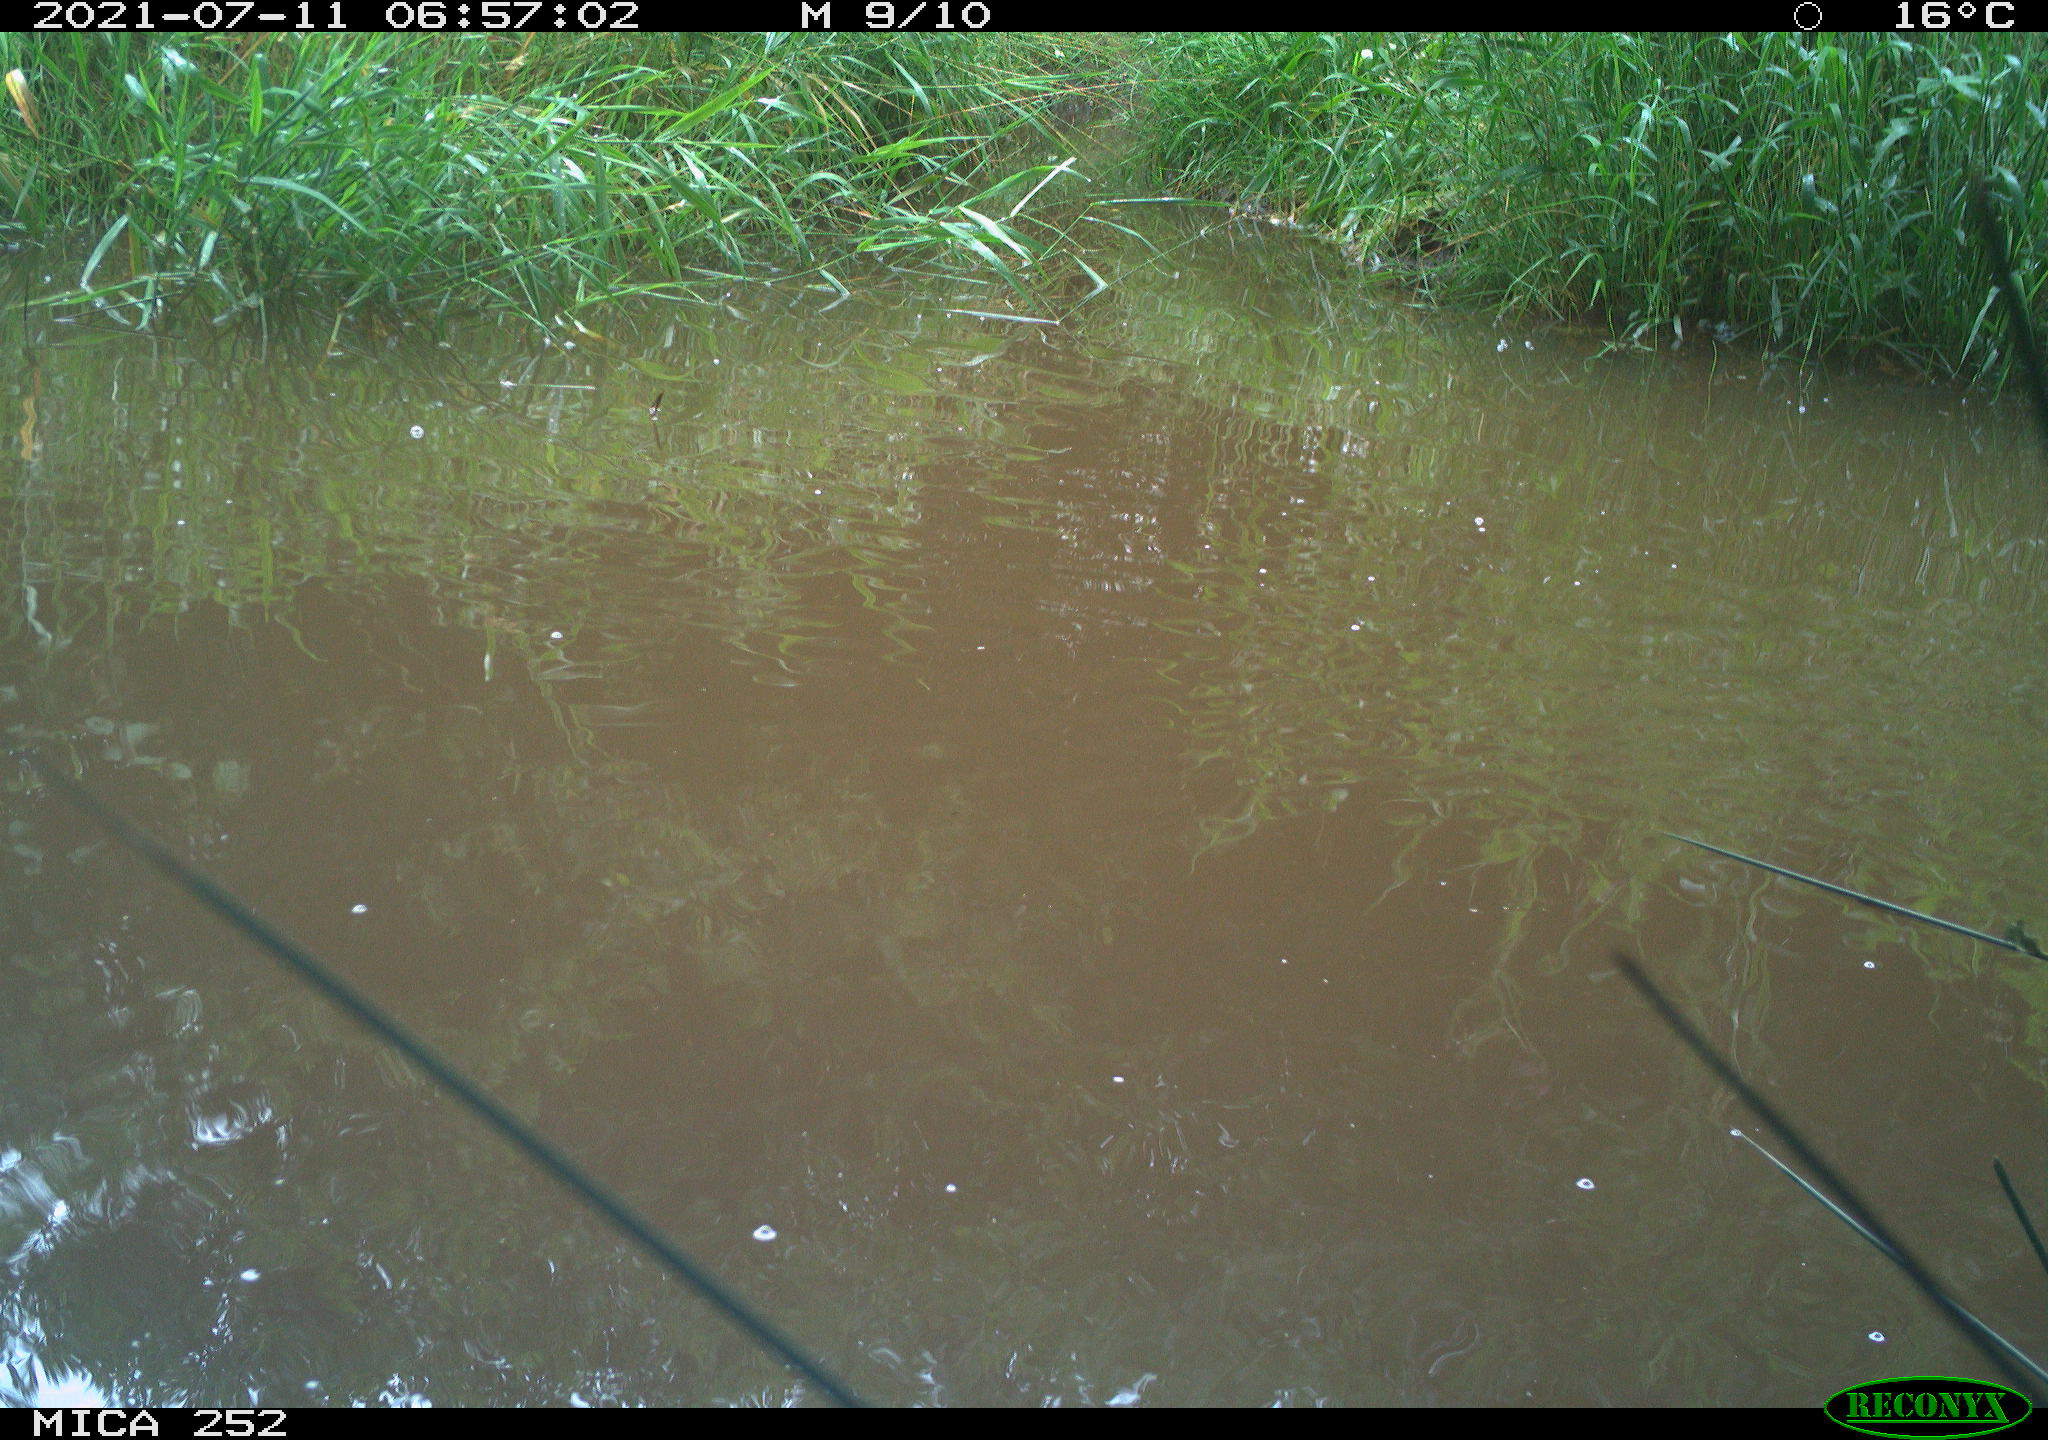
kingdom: Animalia
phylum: Chordata
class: Aves
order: Anseriformes
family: Anatidae
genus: Anas
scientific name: Anas platyrhynchos
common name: Mallard
